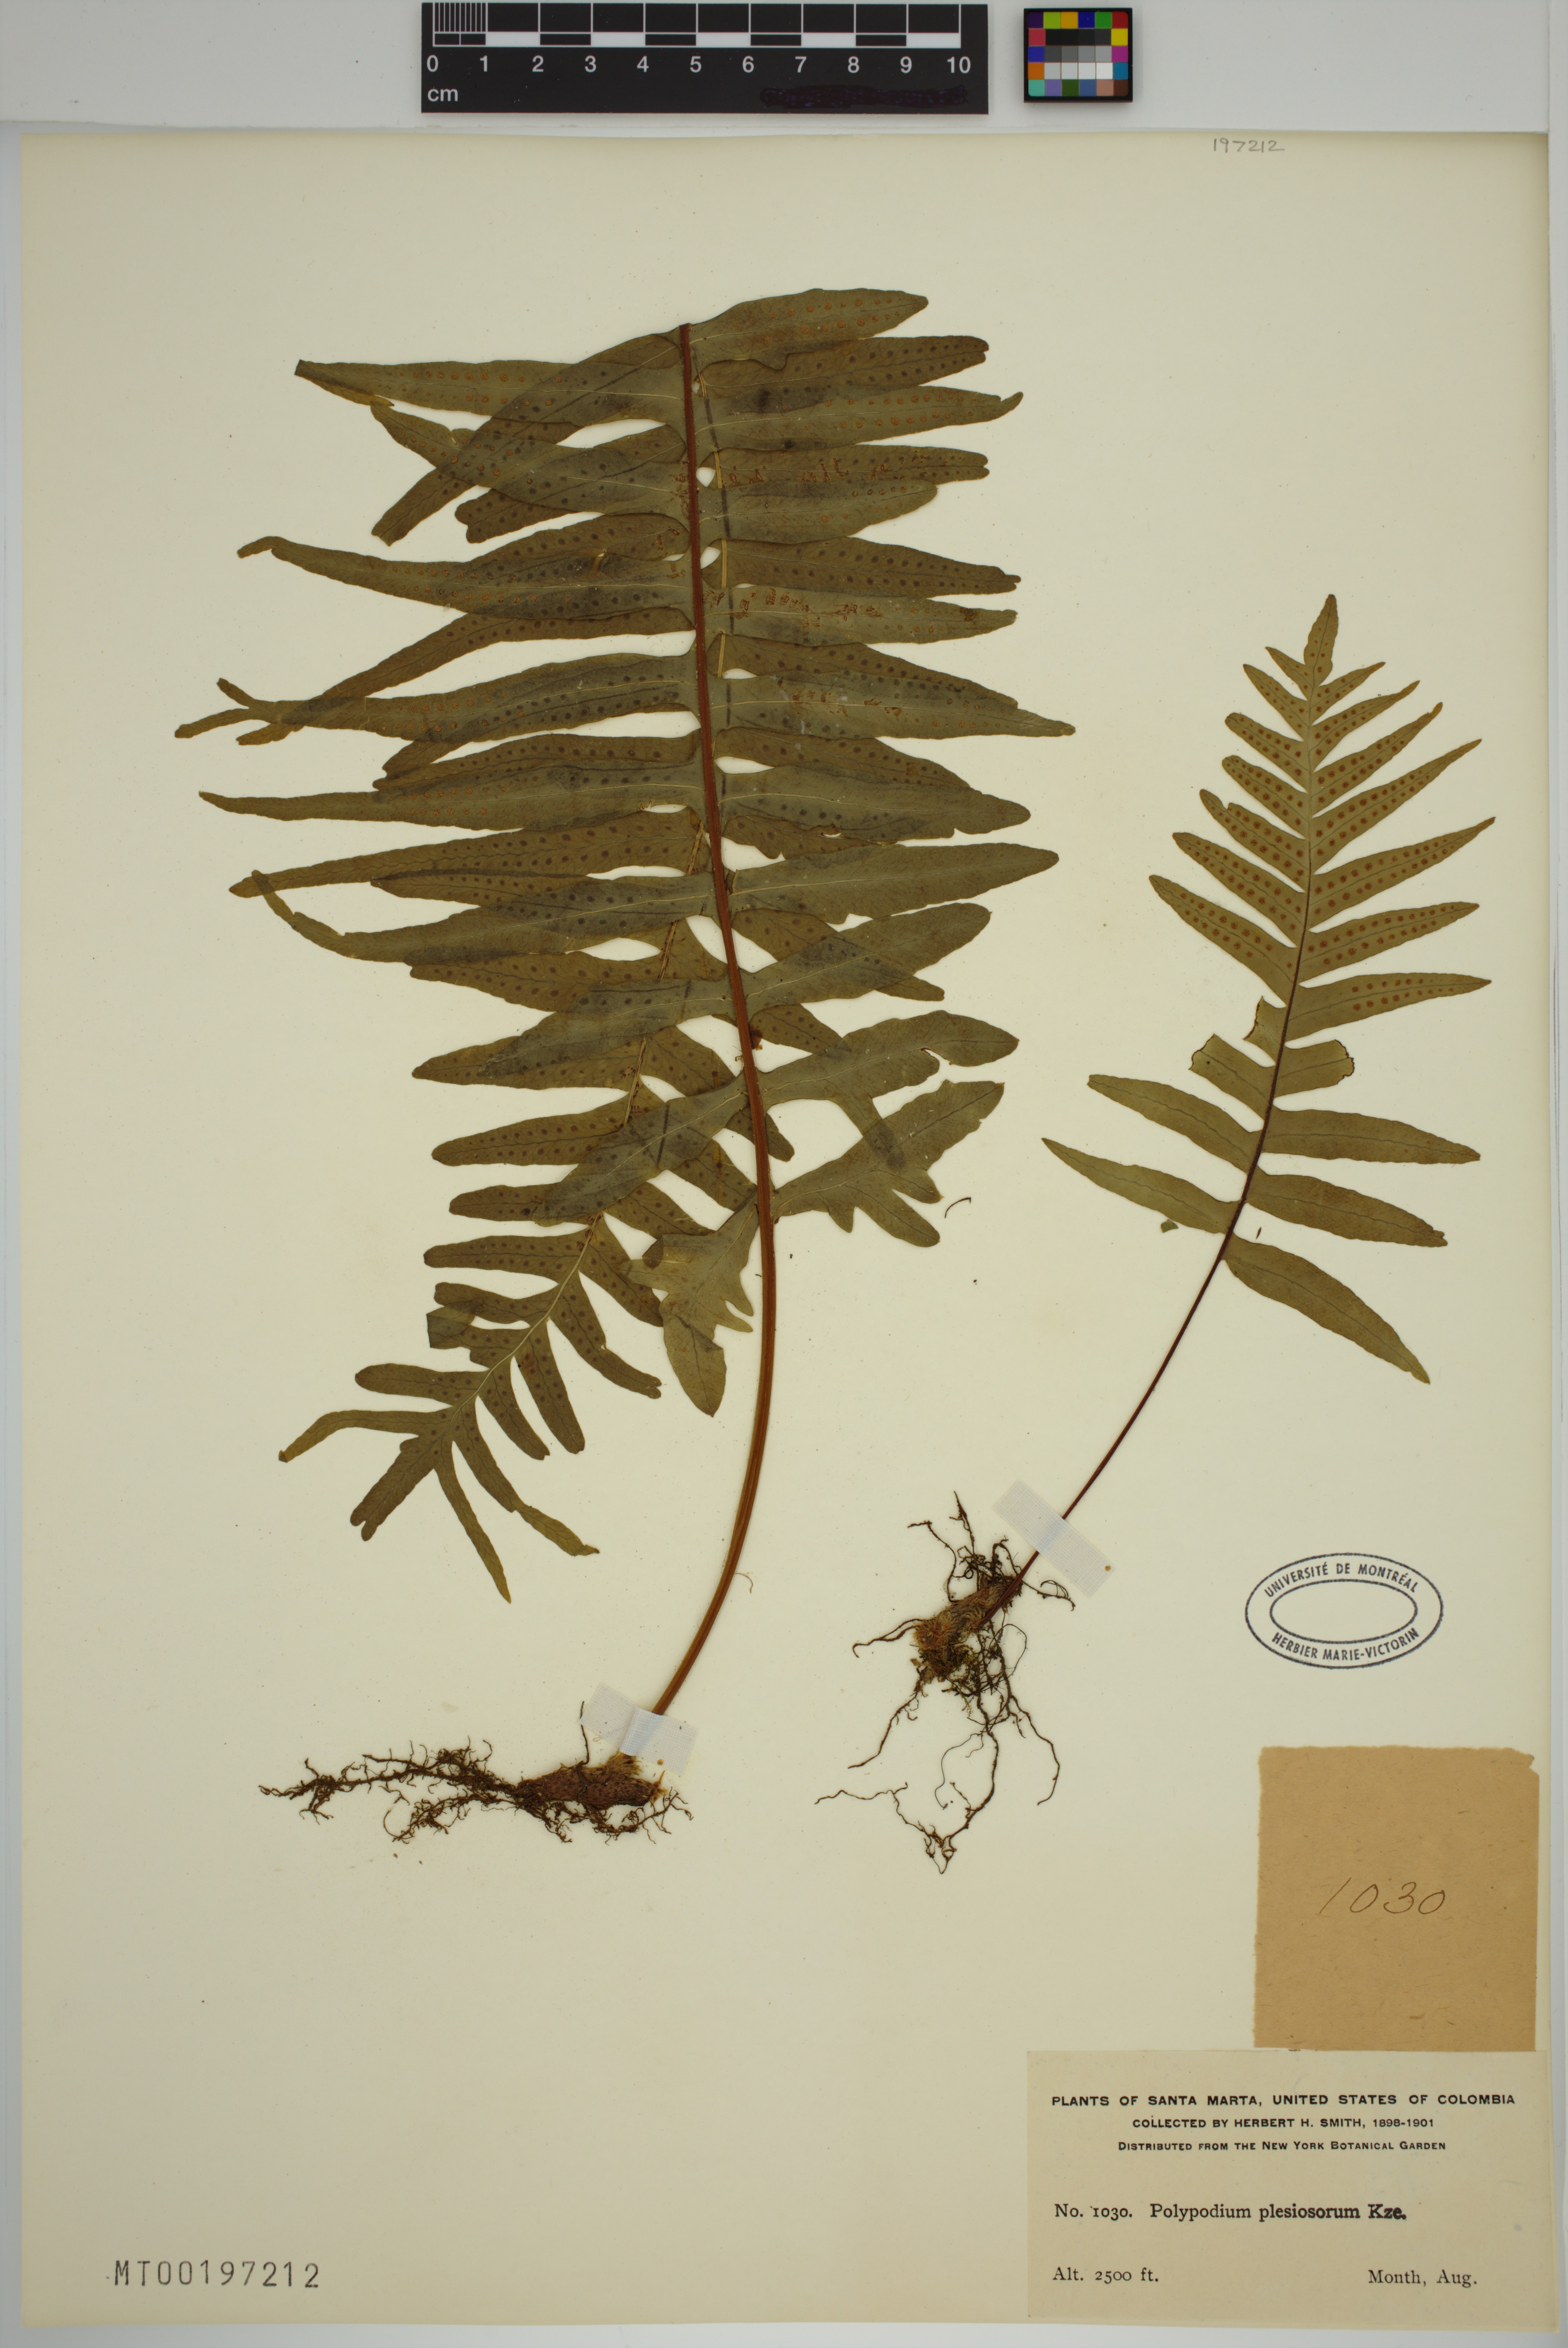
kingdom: Plantae
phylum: Tracheophyta
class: Polypodiopsida
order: Polypodiales
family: Polypodiaceae
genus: Polypodium
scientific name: Polypodium plesiosorum
